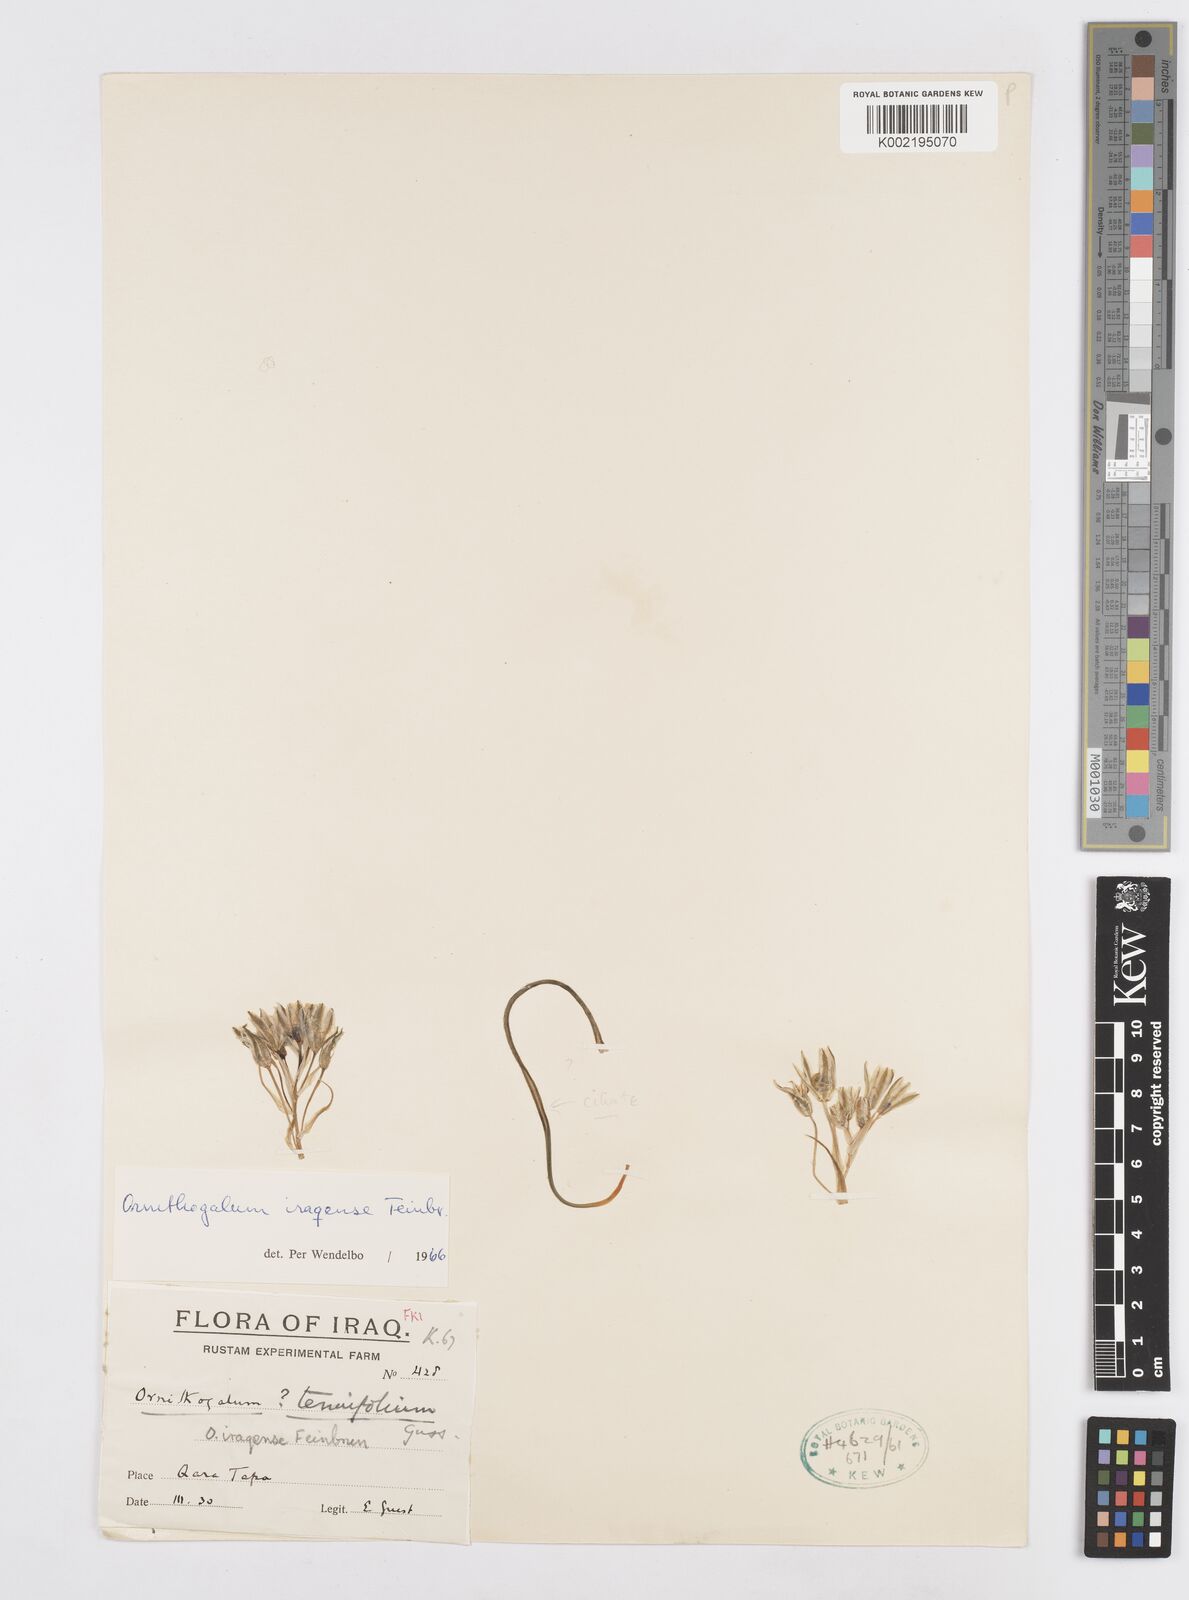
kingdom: Plantae
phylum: Tracheophyta
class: Liliopsida
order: Asparagales
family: Asparagaceae
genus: Ornithogalum
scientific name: Ornithogalum iraqense
